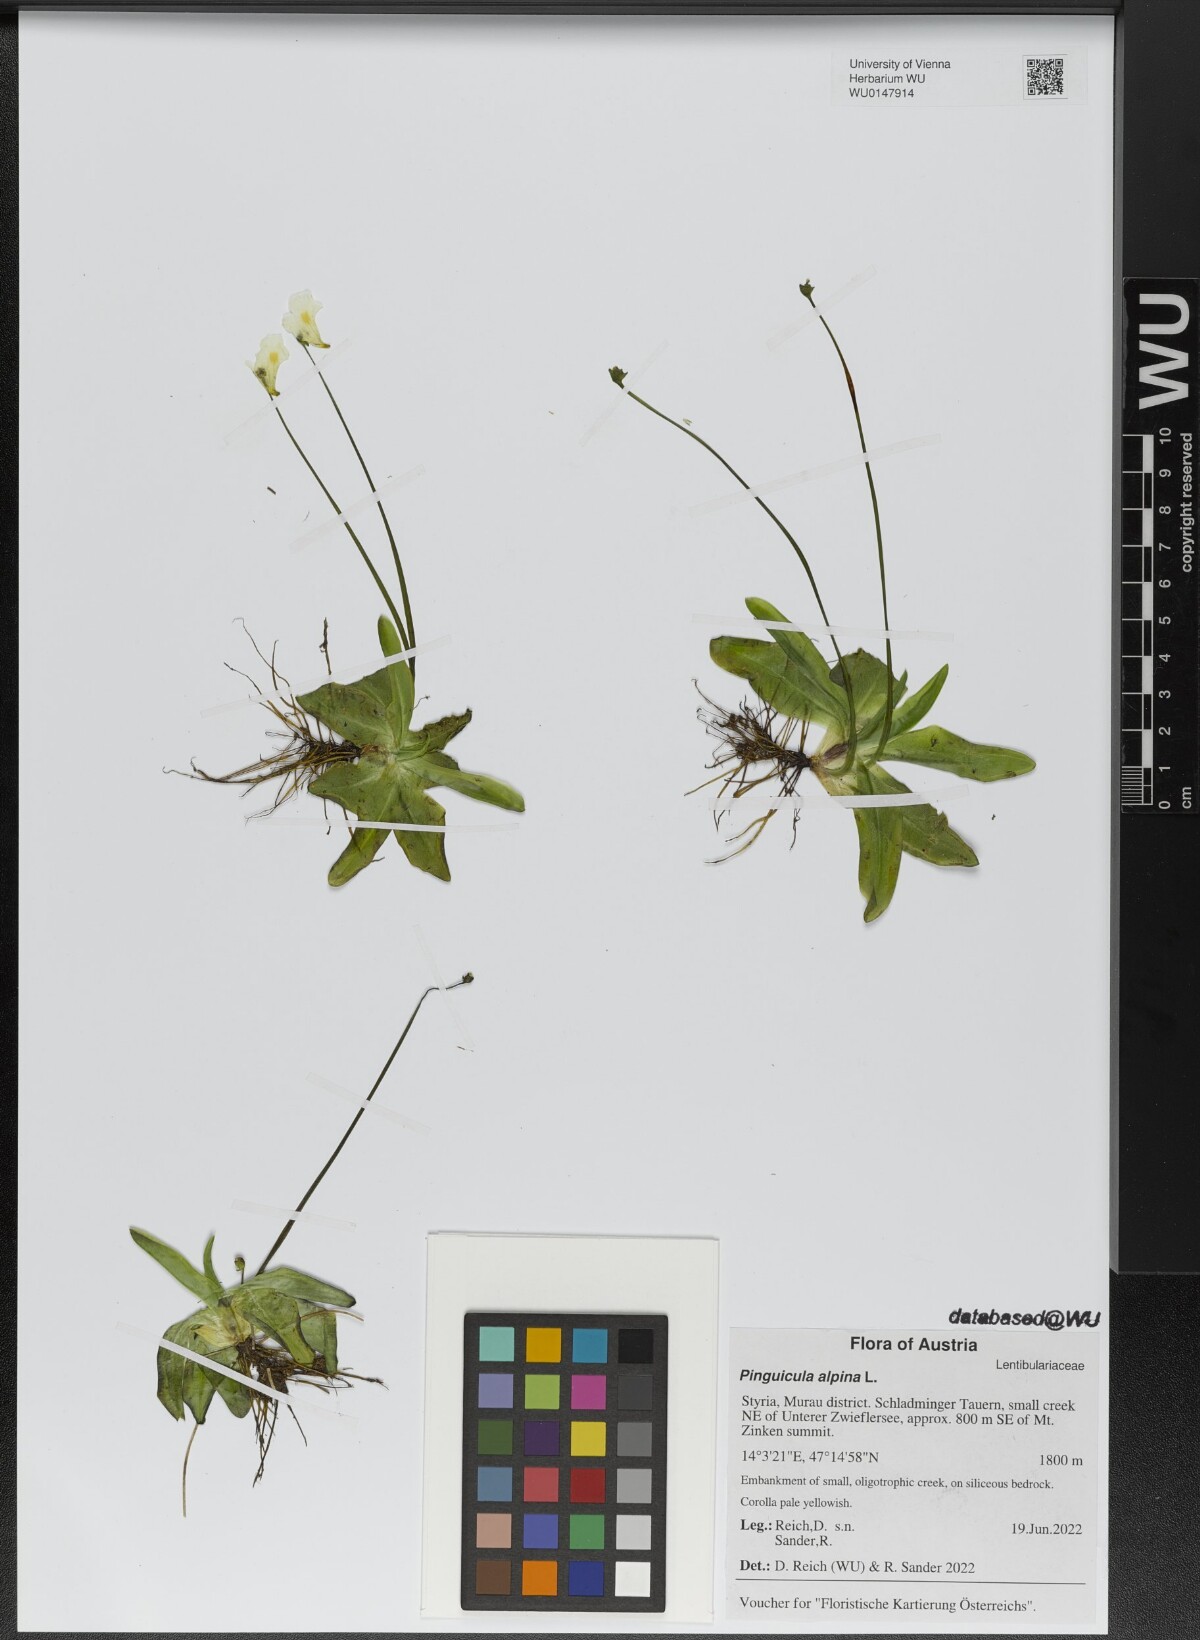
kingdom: Plantae
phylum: Tracheophyta
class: Magnoliopsida
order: Lamiales
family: Lentibulariaceae
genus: Pinguicula
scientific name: Pinguicula alpina
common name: Alpine butterwort
